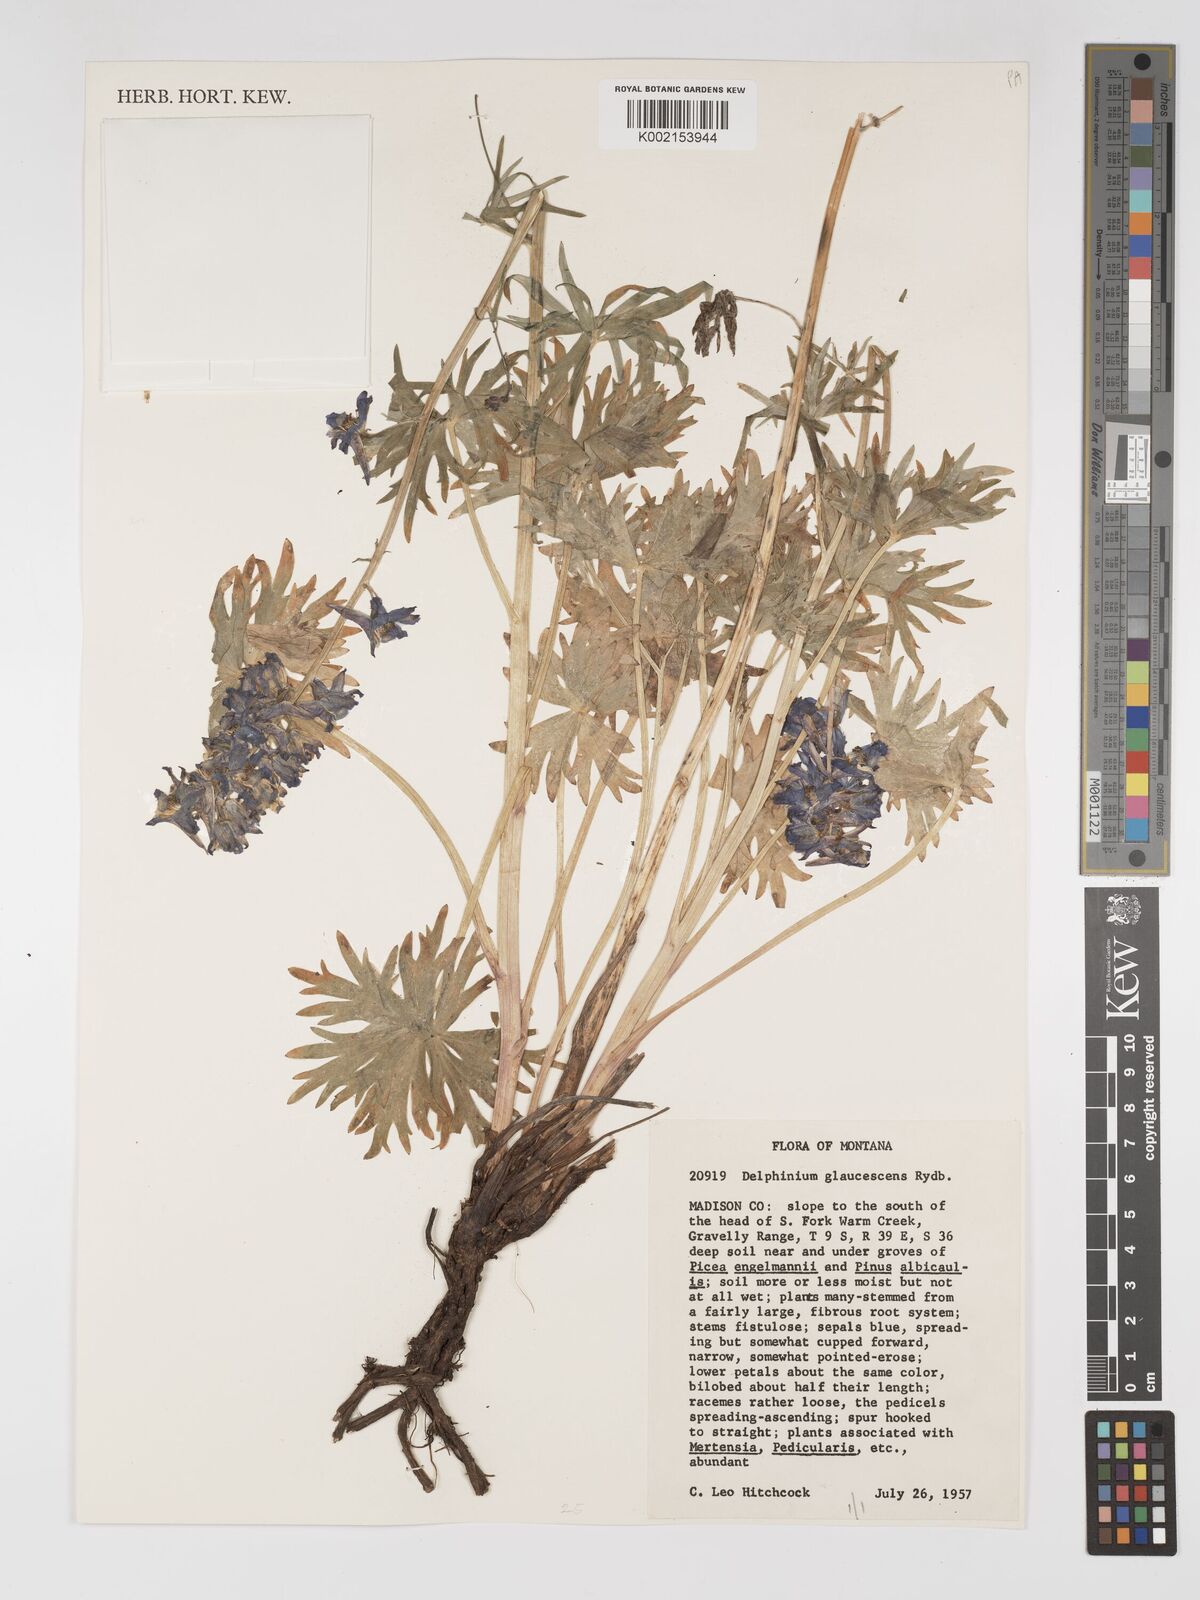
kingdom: Plantae
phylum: Tracheophyta
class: Magnoliopsida
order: Ranunculales
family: Ranunculaceae
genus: Delphinium
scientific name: Delphinium glaucescens
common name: Glaucous larkspur
